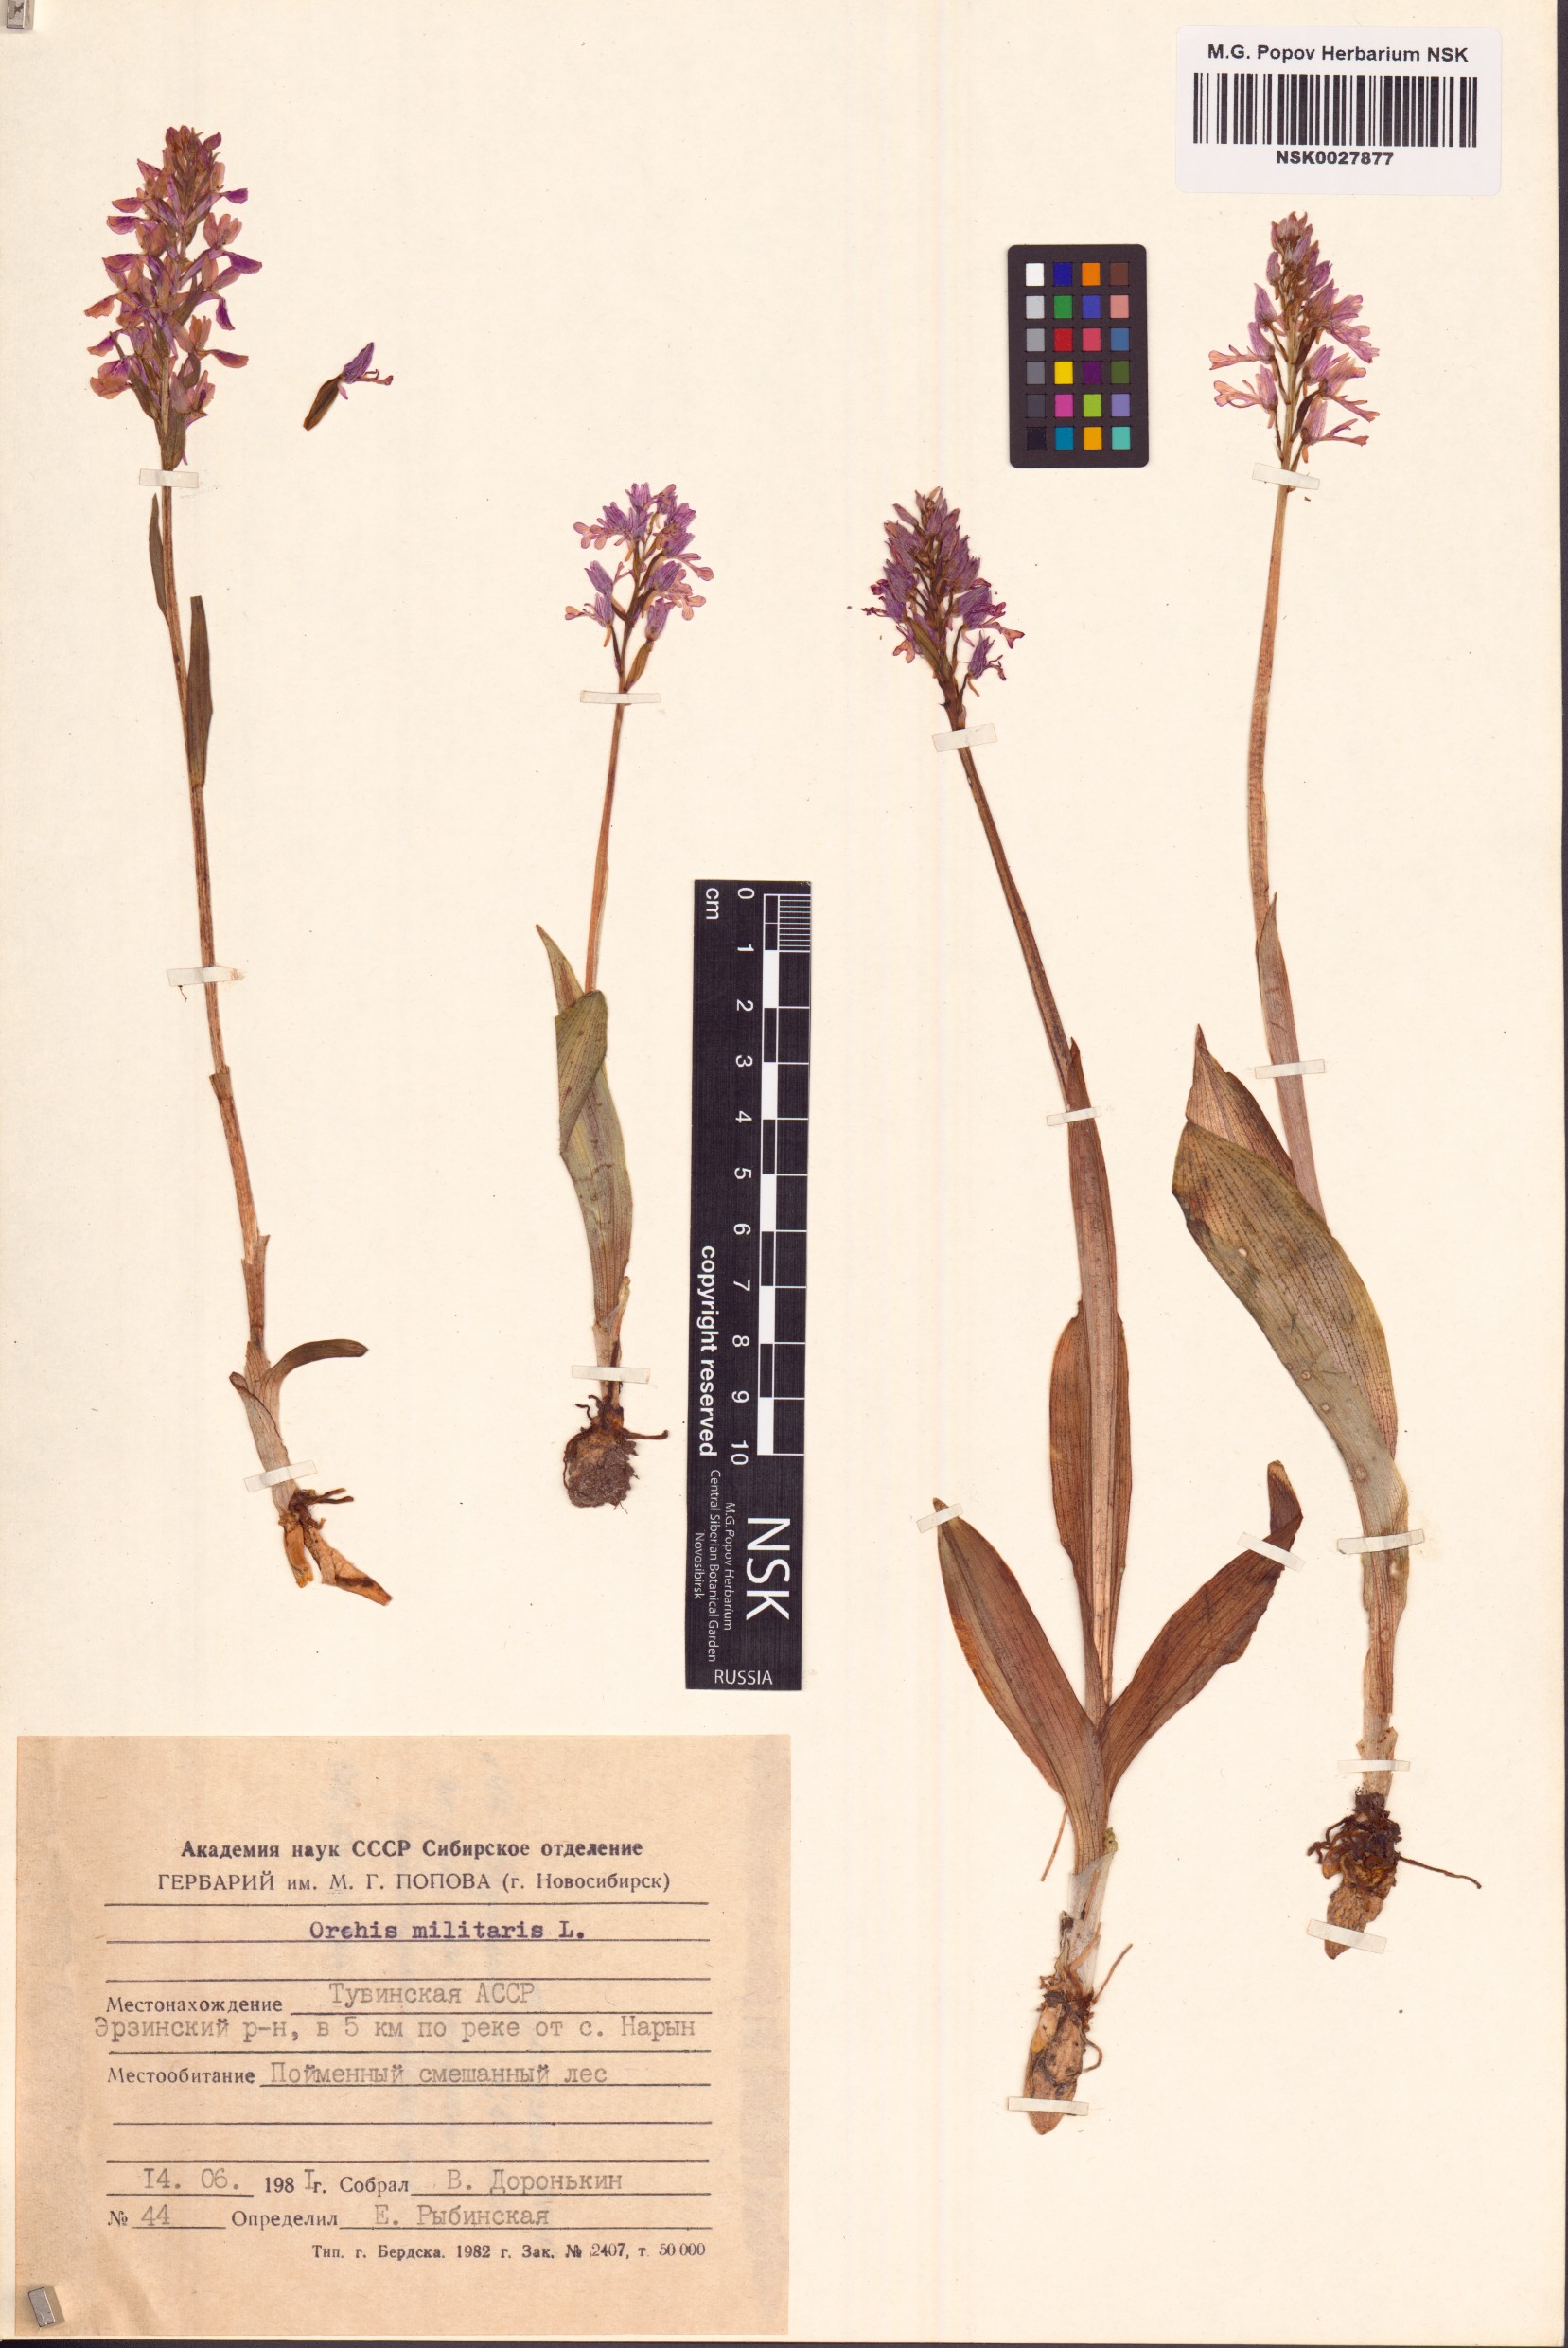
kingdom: Plantae
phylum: Tracheophyta
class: Liliopsida
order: Asparagales
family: Orchidaceae
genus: Orchis
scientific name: Orchis militaris
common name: Military orchid
